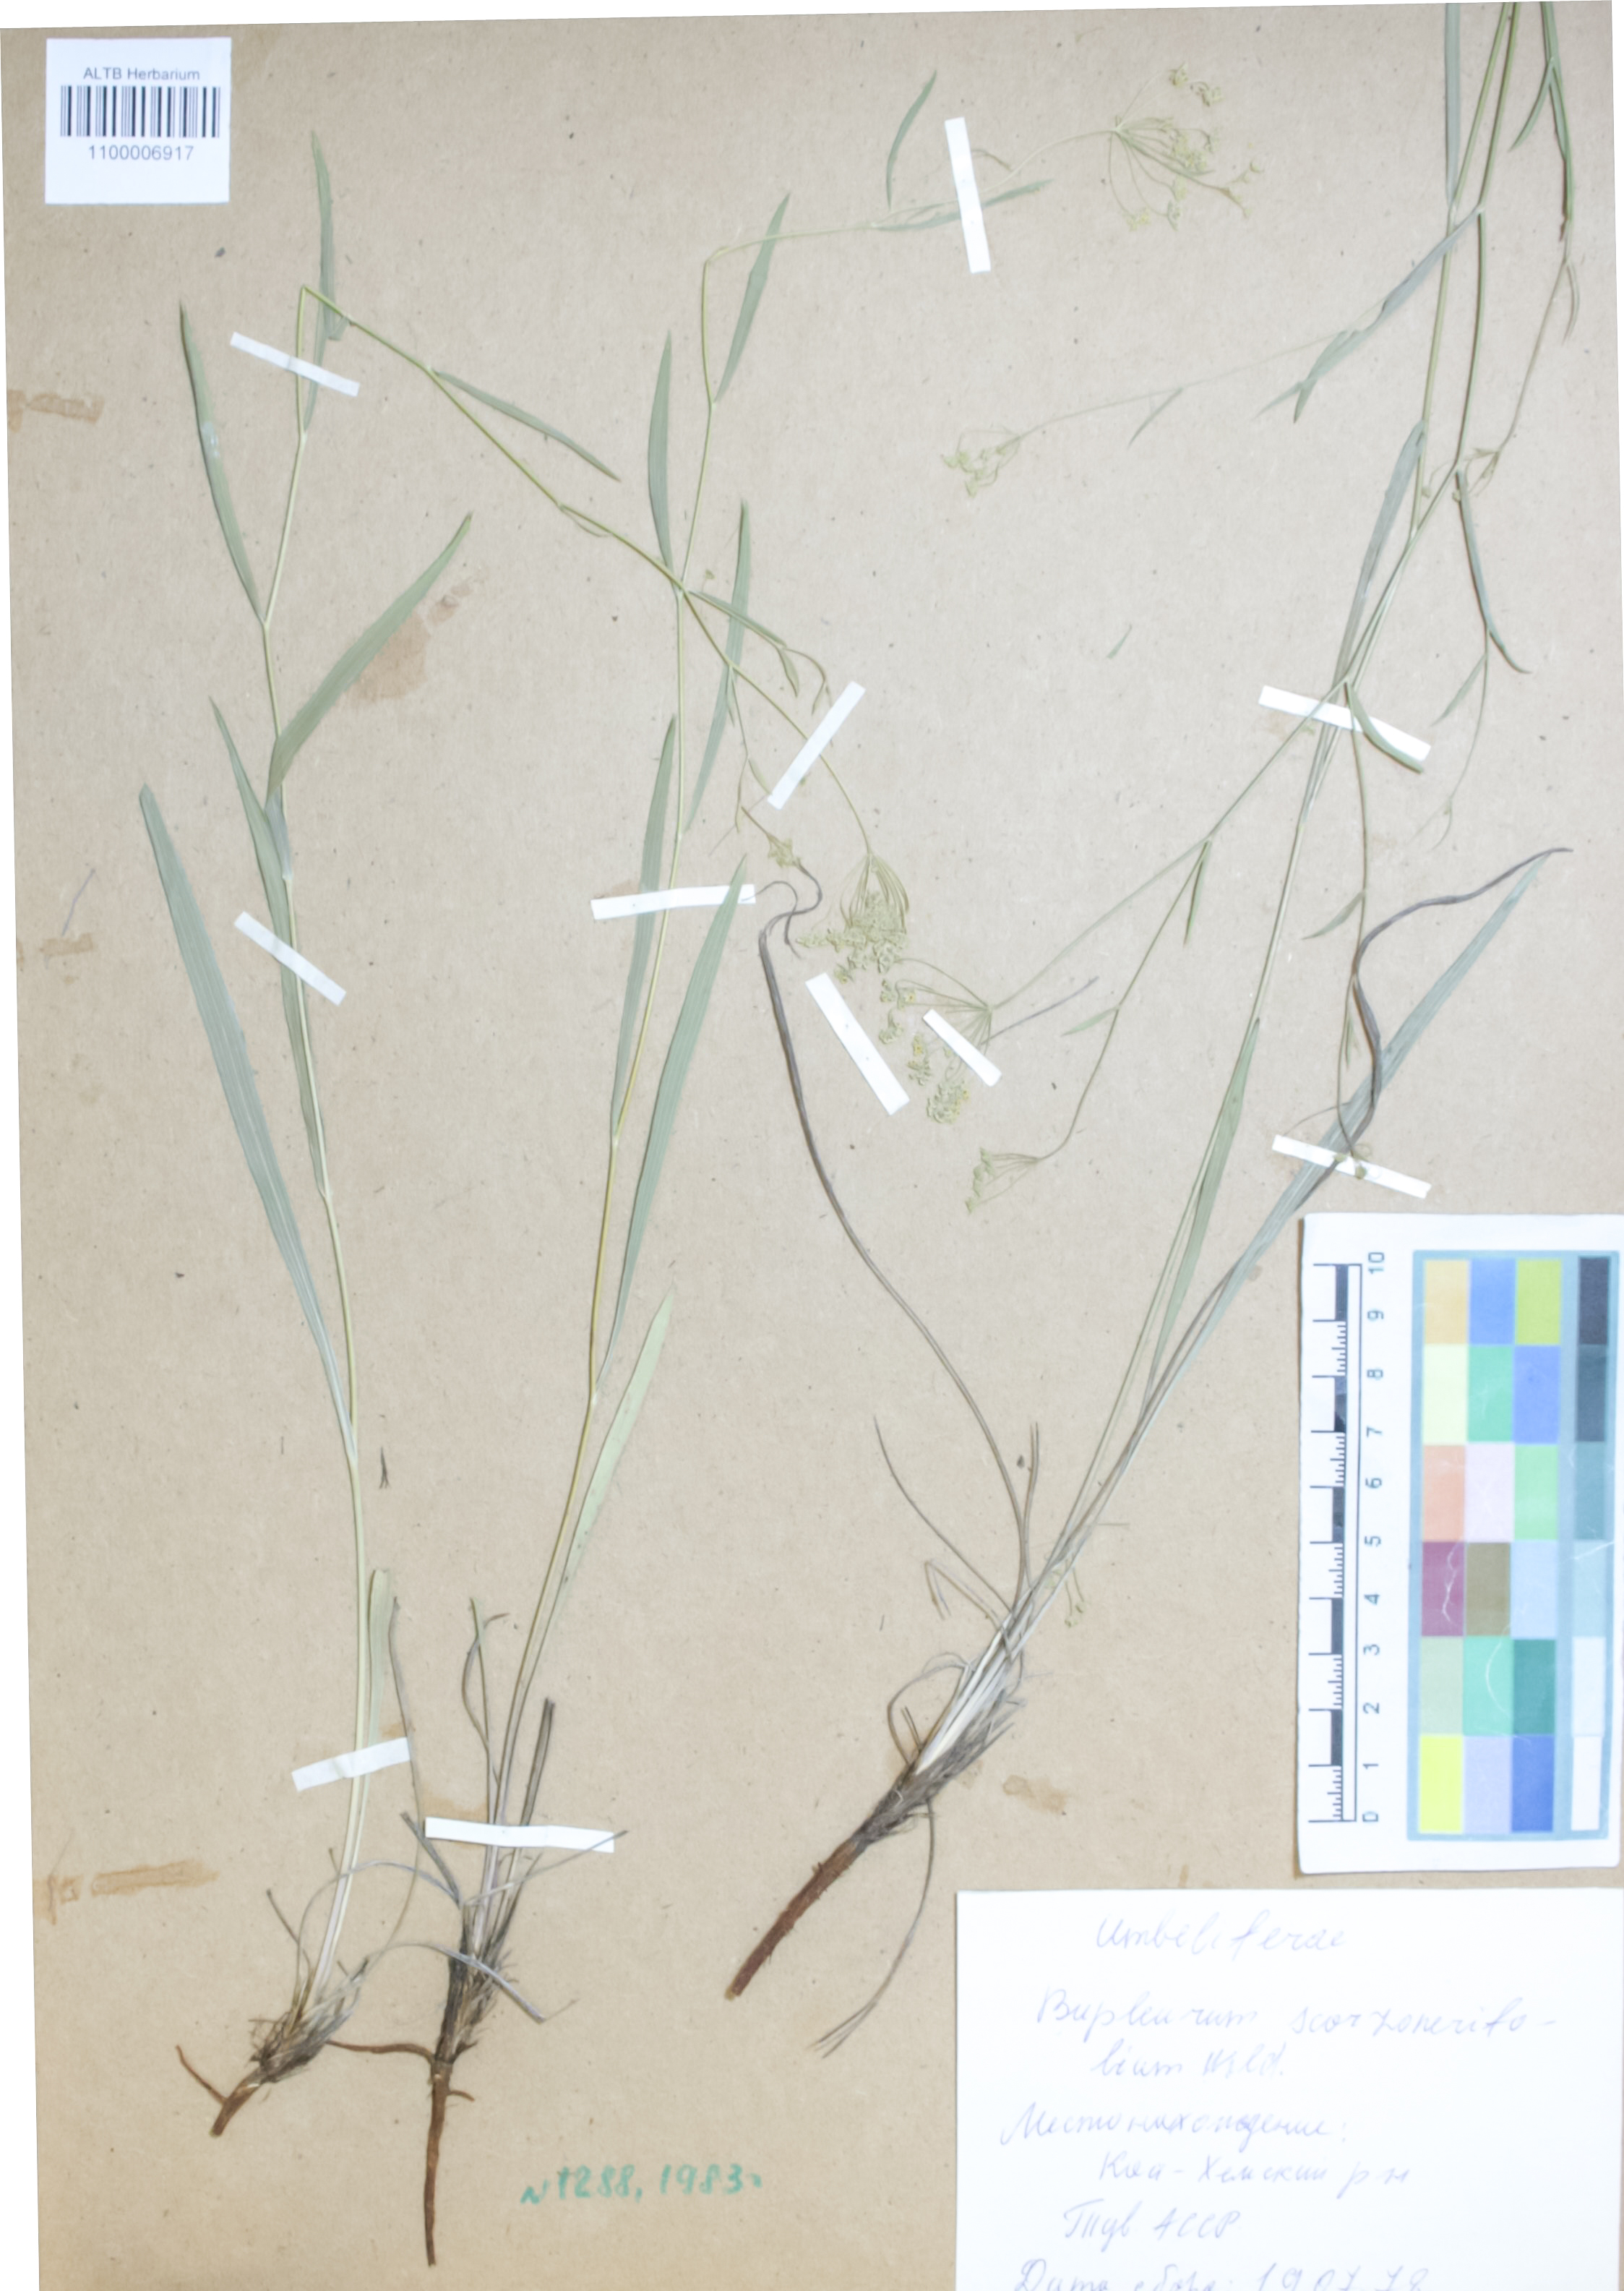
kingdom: Plantae
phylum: Tracheophyta
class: Magnoliopsida
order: Apiales
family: Apiaceae
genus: Bupleurum
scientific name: Bupleurum scorzonerifolium
